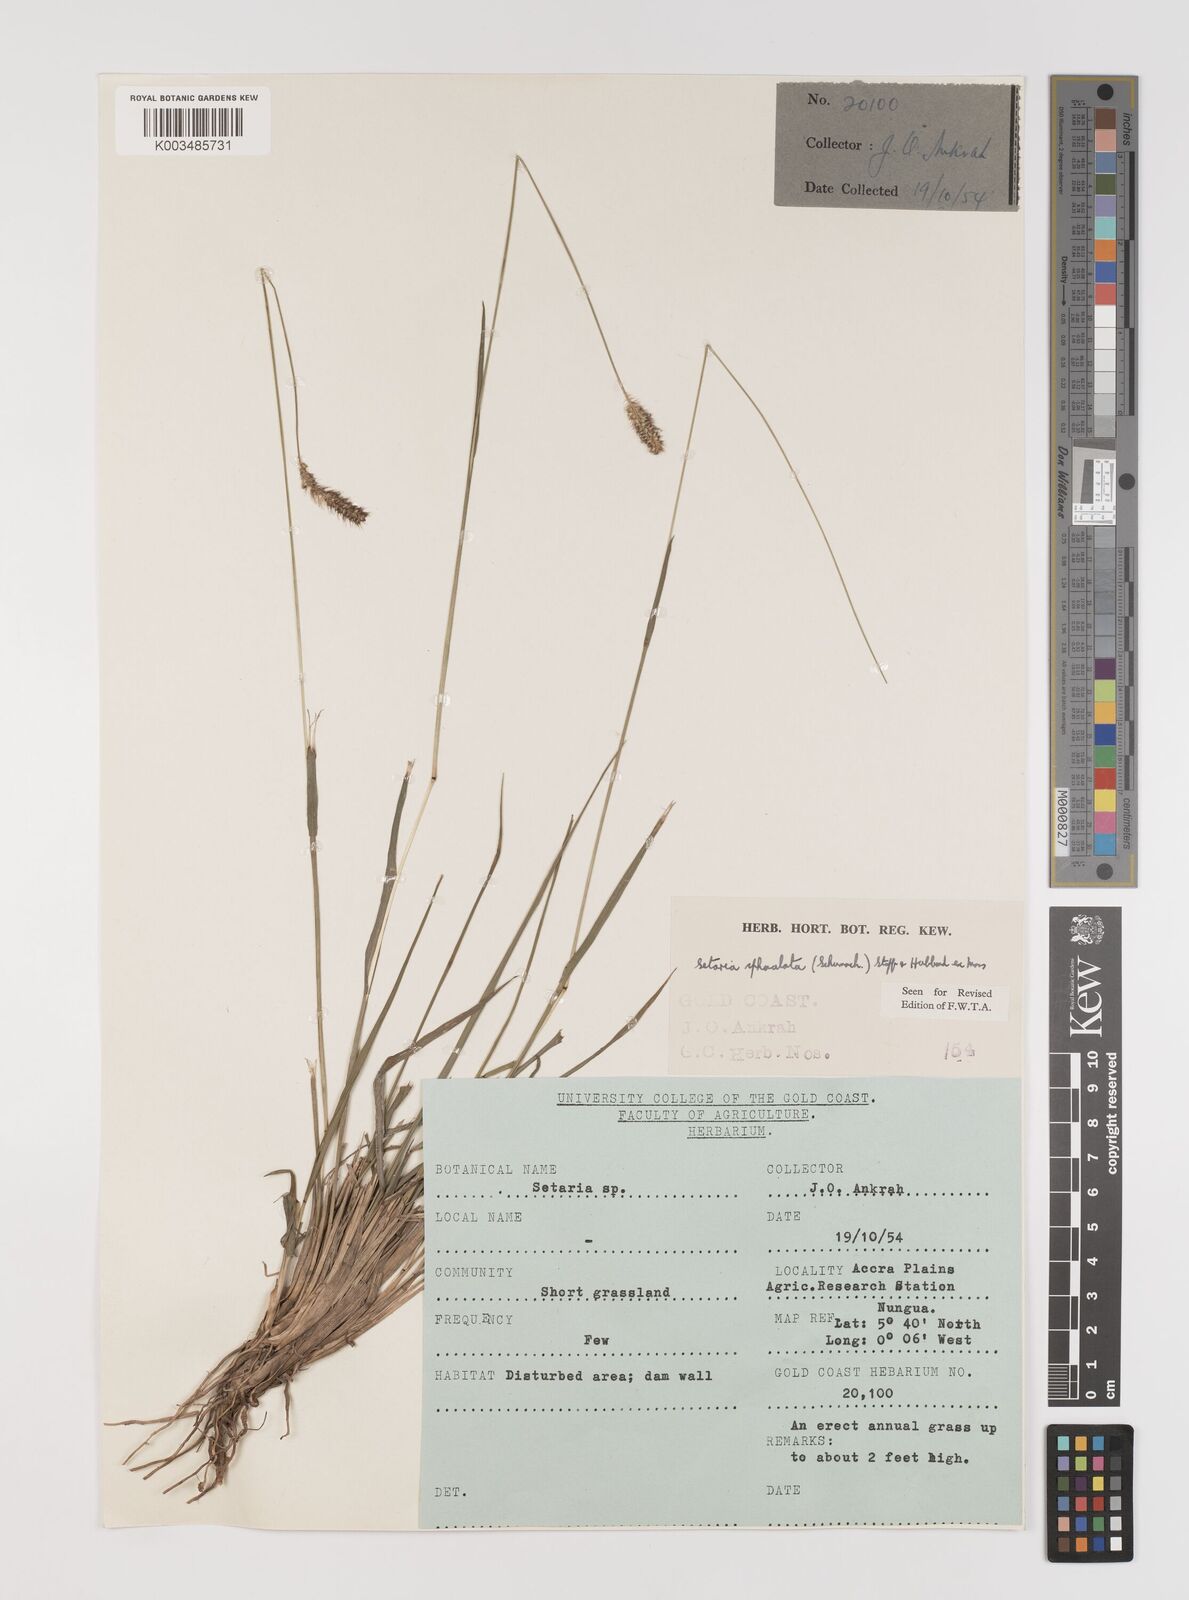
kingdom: Plantae
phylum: Tracheophyta
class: Liliopsida
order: Poales
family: Poaceae
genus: Setaria
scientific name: Setaria sphacelata
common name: African bristlegrass
